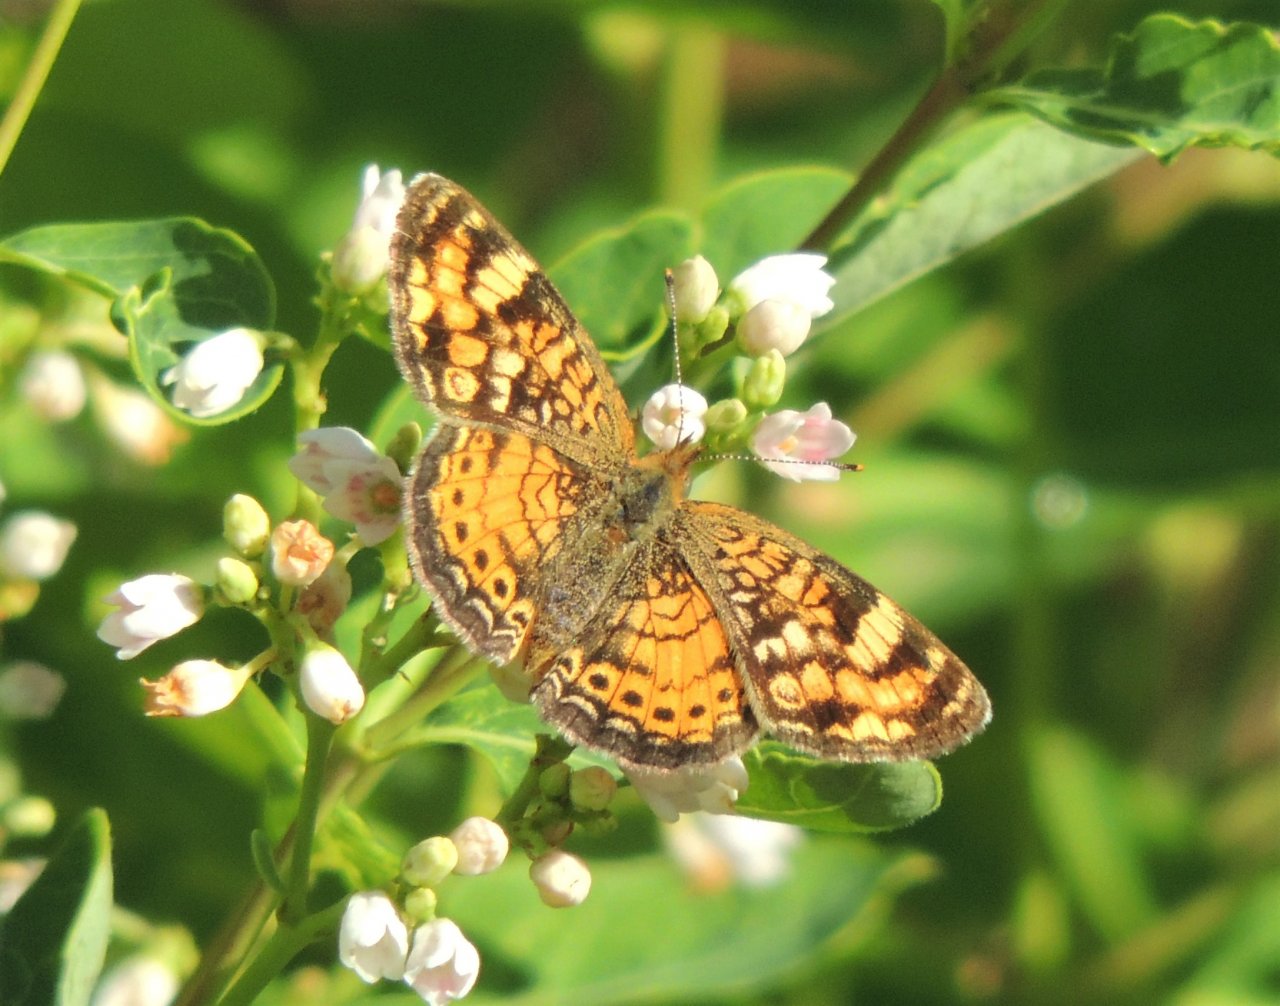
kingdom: Animalia
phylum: Arthropoda
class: Insecta
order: Lepidoptera
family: Nymphalidae
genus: Phyciodes
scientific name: Phyciodes tharos
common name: Field Crescent
